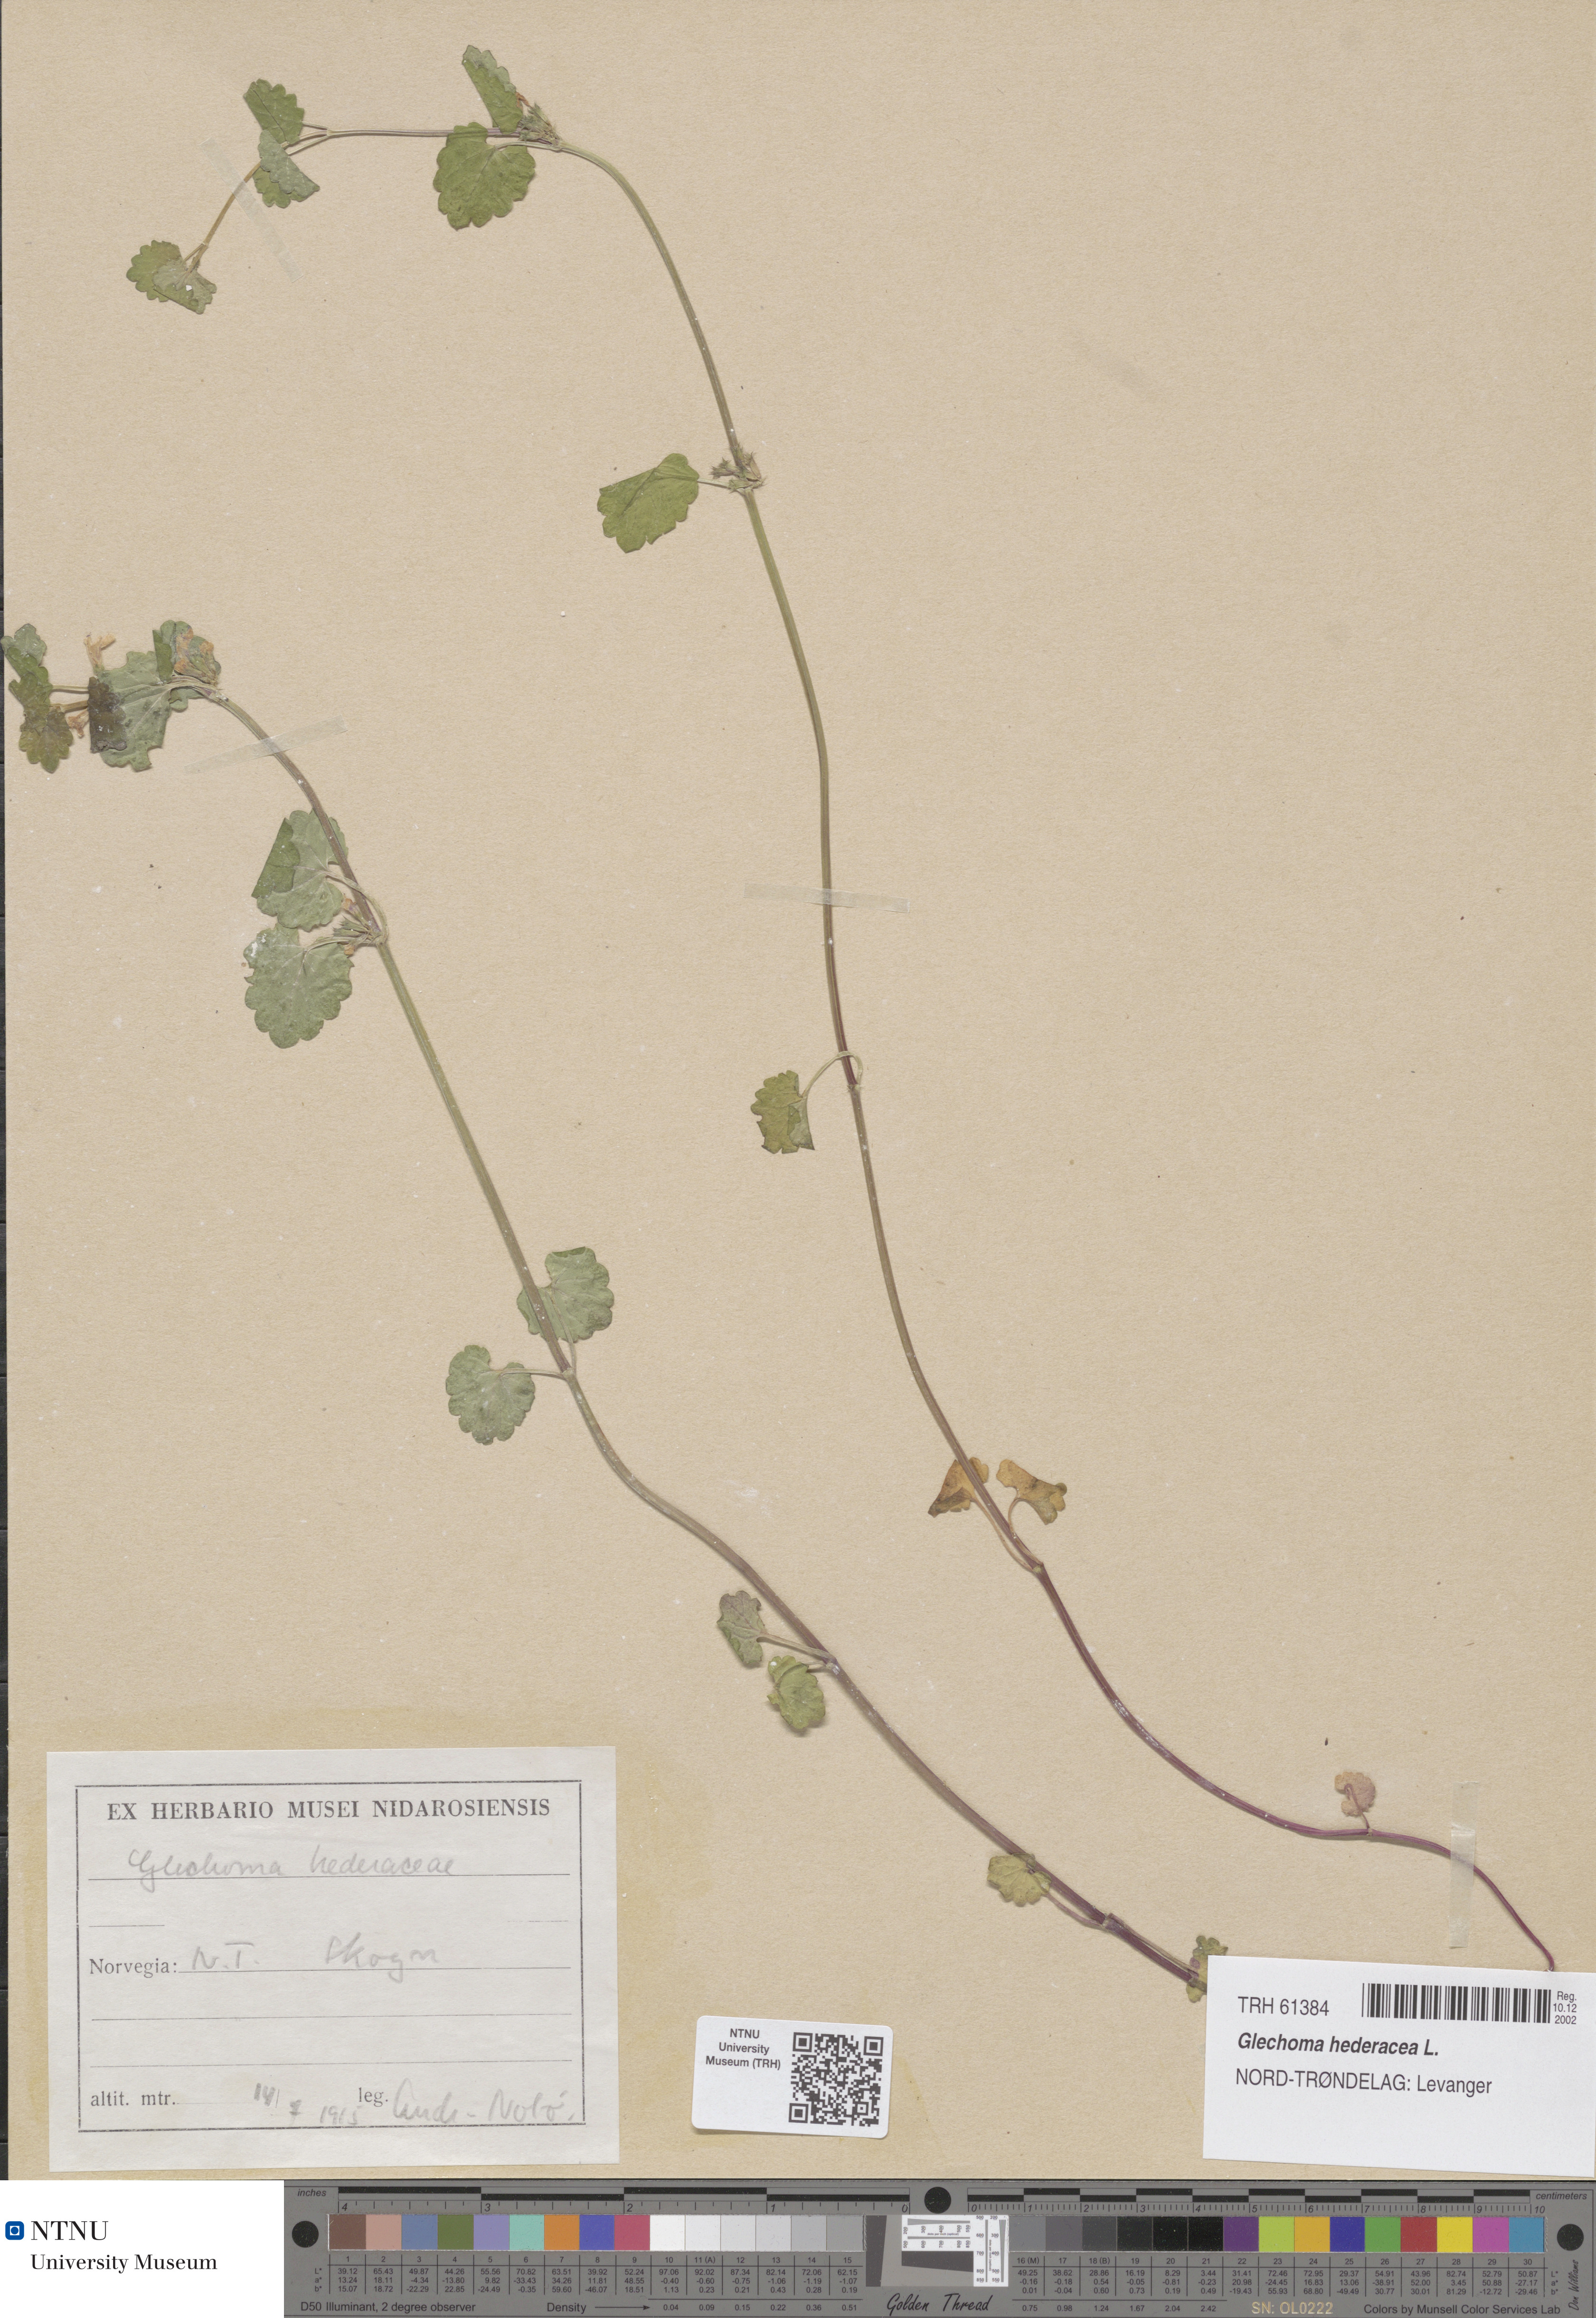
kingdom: Plantae
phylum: Tracheophyta
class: Magnoliopsida
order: Lamiales
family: Lamiaceae
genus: Glechoma
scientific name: Glechoma hederacea
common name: Ground ivy
